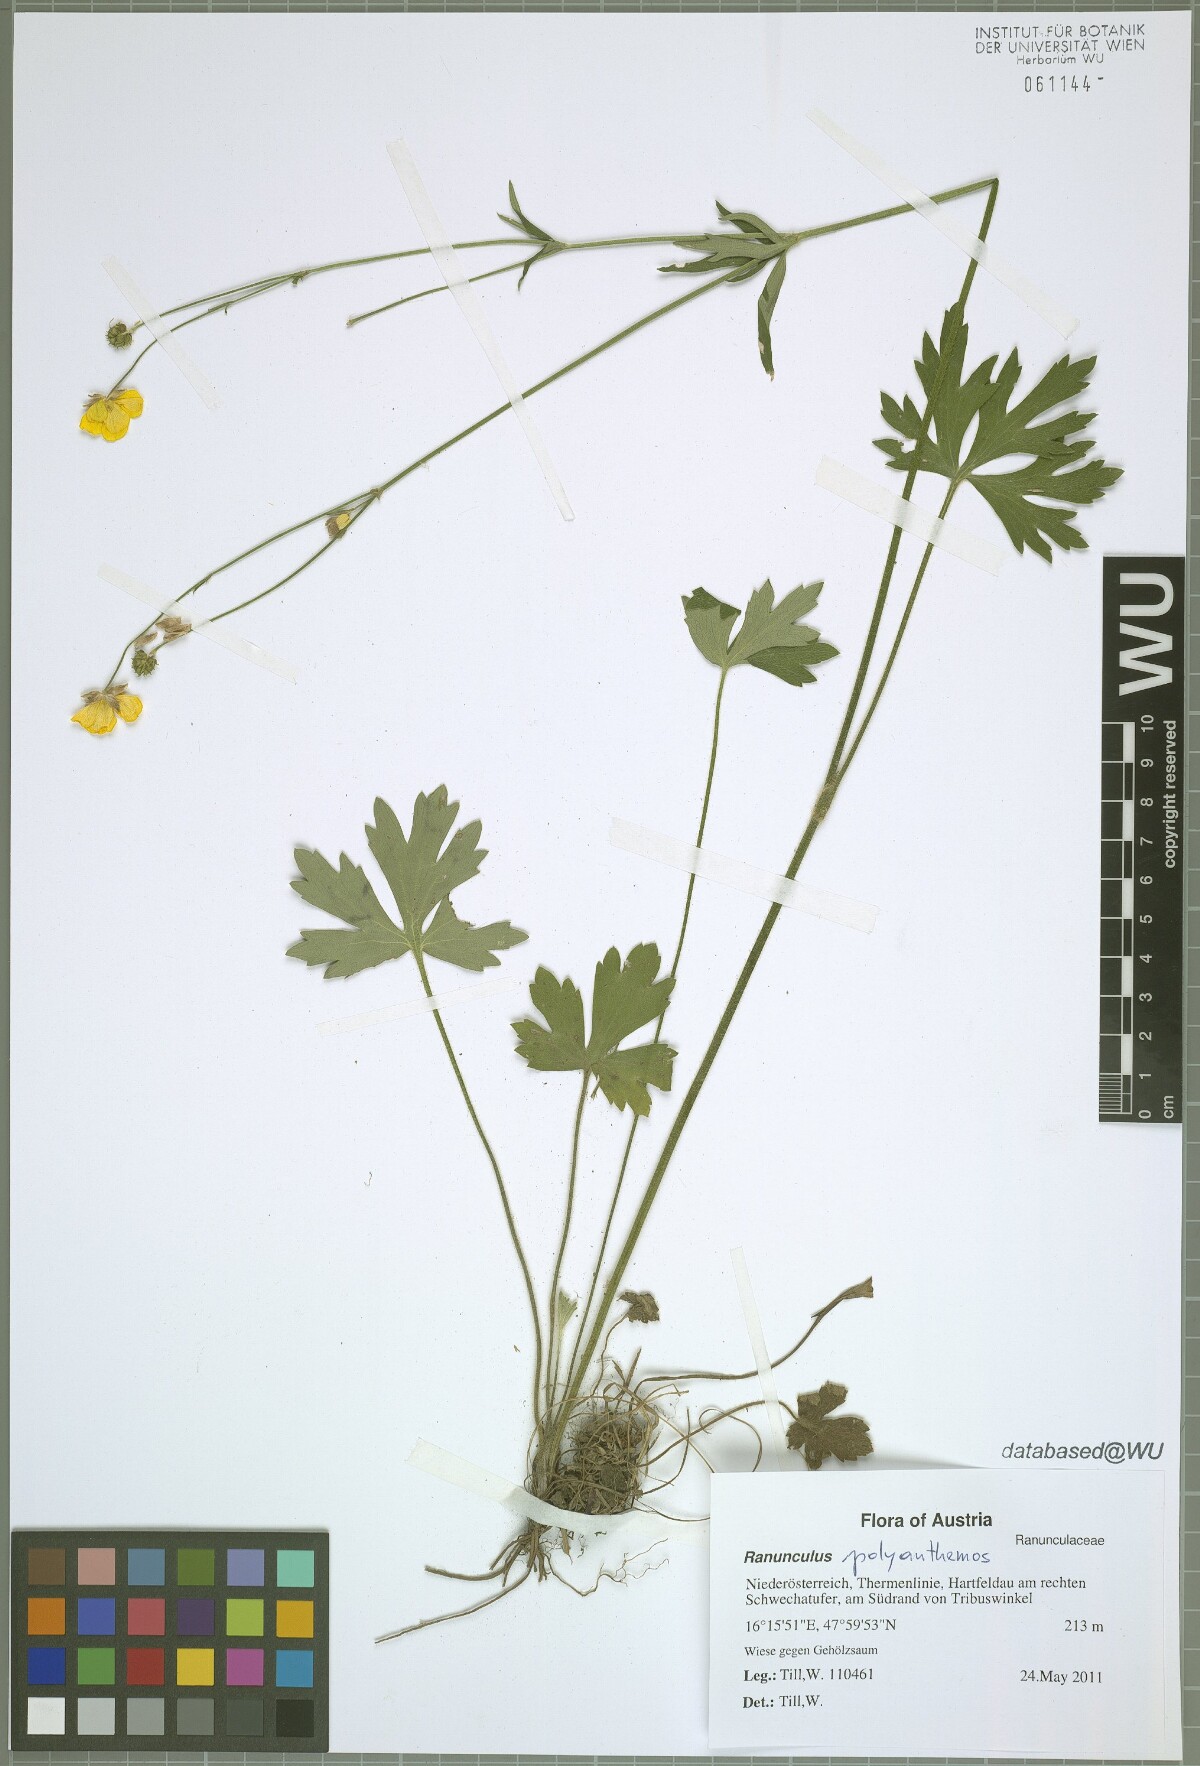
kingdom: Plantae
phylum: Tracheophyta
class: Magnoliopsida
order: Ranunculales
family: Ranunculaceae
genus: Ranunculus
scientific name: Ranunculus polyanthemos
